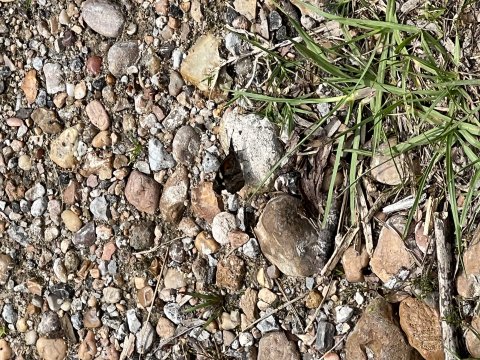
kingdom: Animalia
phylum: Arthropoda
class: Insecta
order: Lepidoptera
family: Nymphalidae
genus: Libytheana
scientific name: Libytheana carinenta
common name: American Snout
